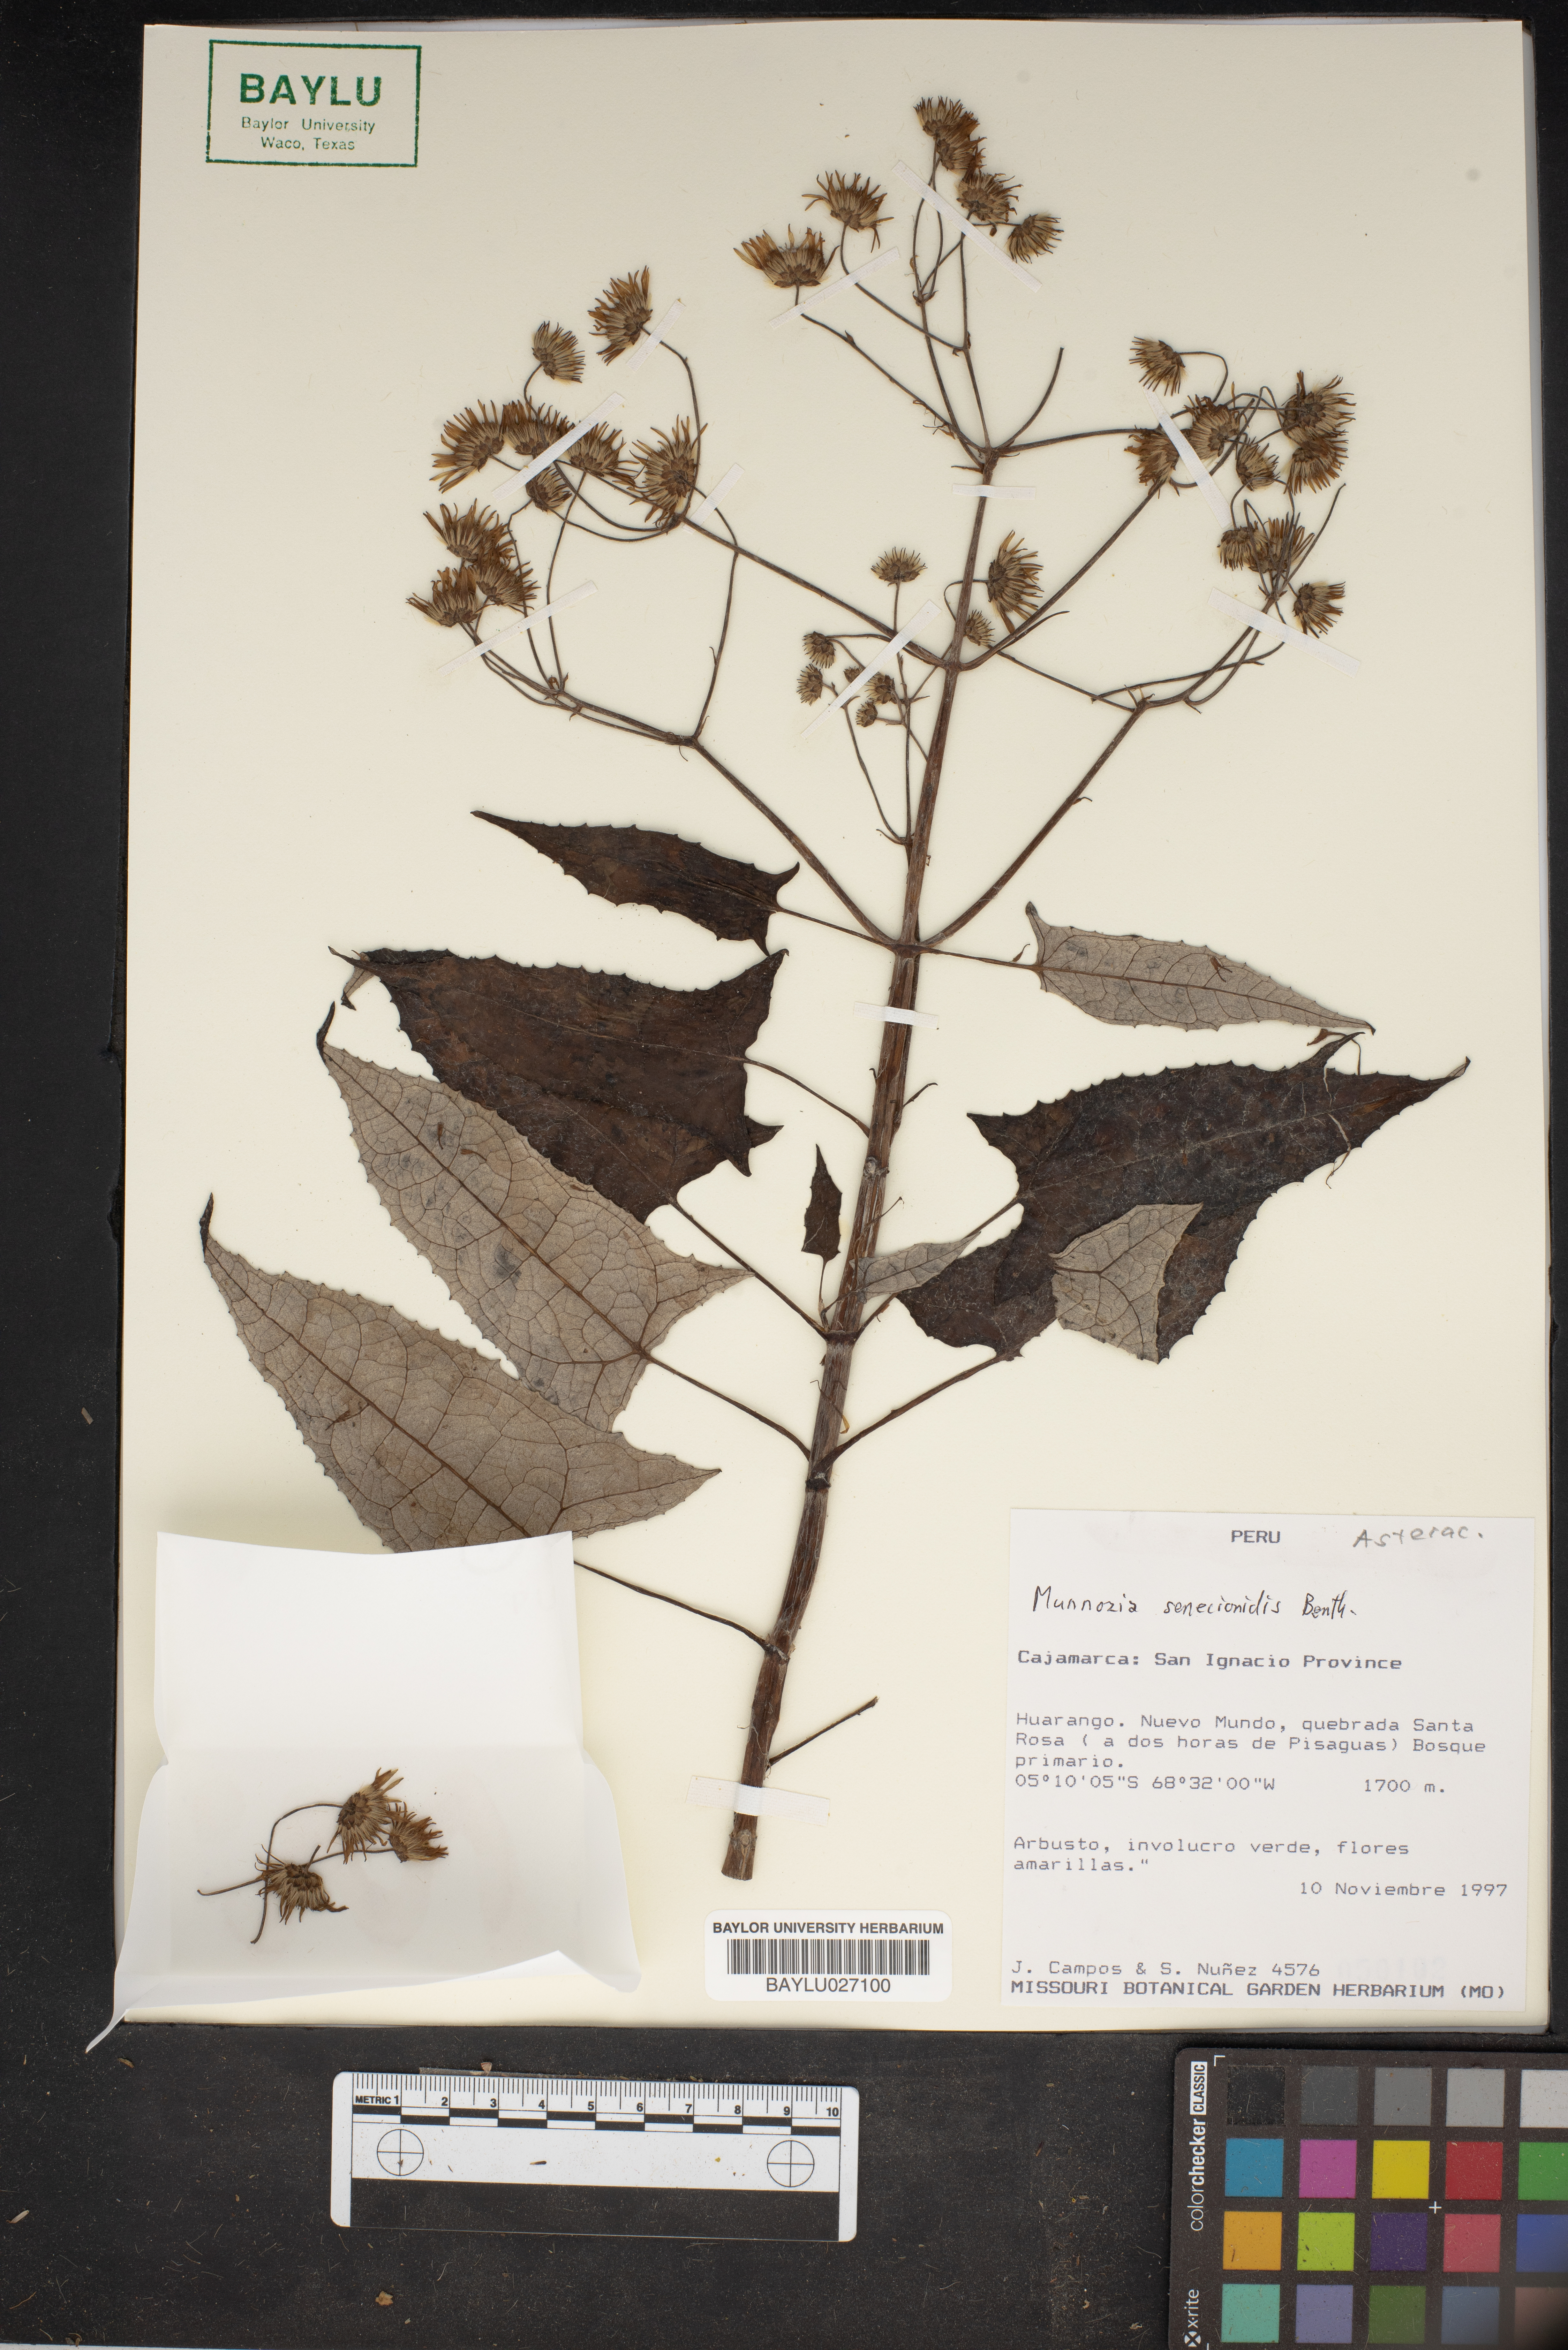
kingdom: Plantae
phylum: Tracheophyta
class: Magnoliopsida
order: Asterales
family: Asteraceae
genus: Munnozia
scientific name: Munnozia senecionidis
